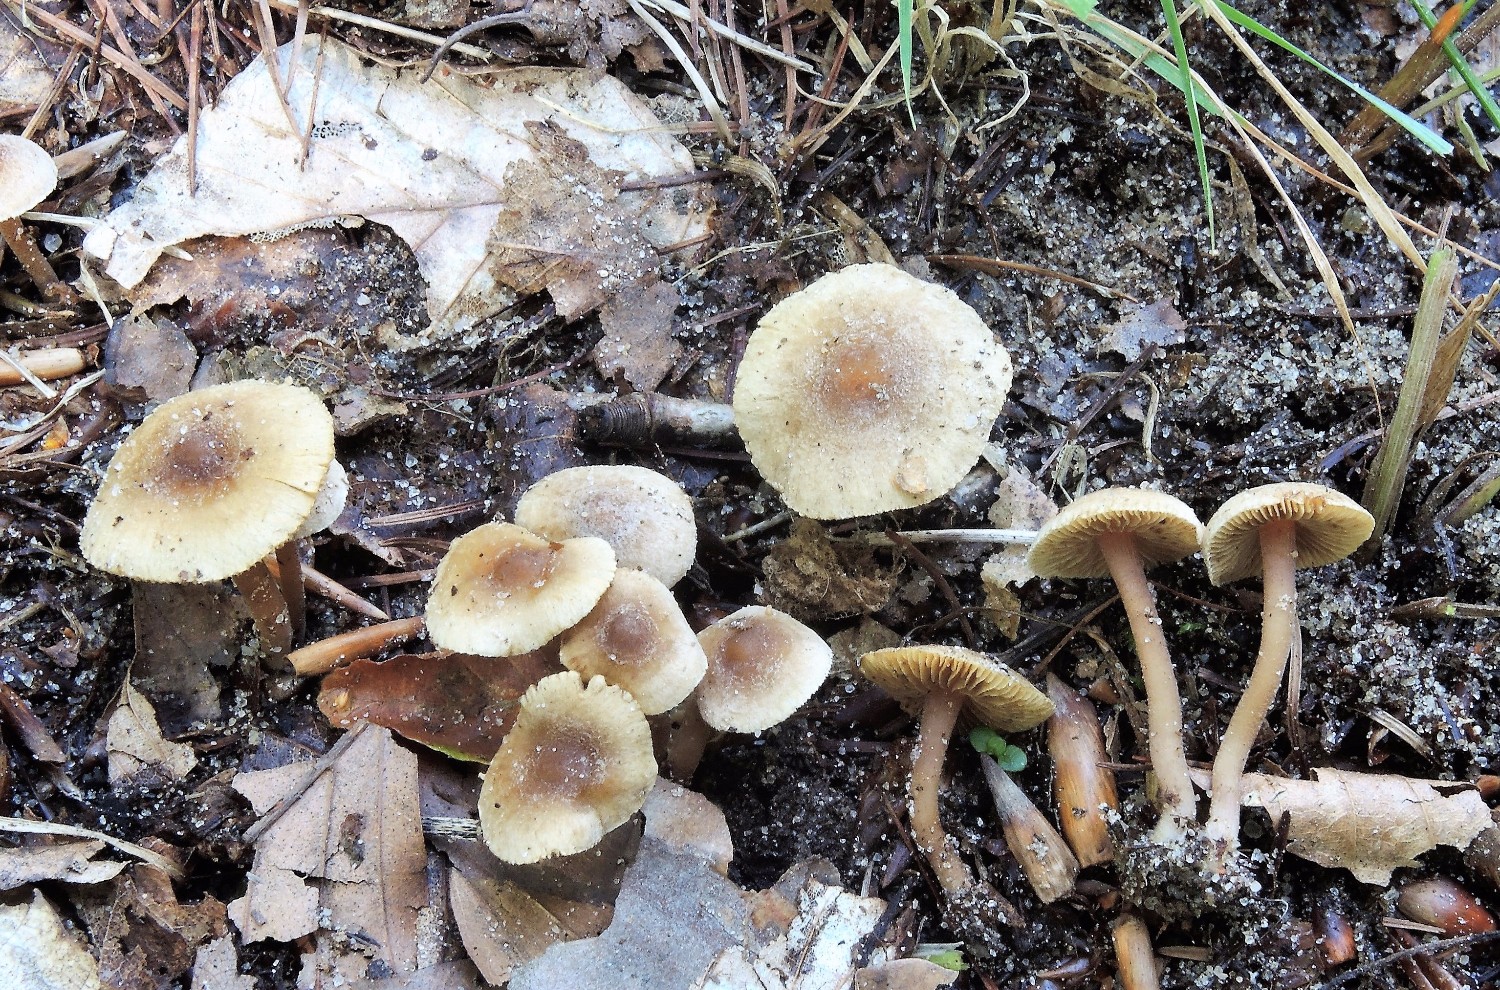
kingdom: Fungi
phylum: Basidiomycota
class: Agaricomycetes
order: Agaricales
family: Inocybaceae
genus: Inocybe
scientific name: Inocybe petiginosa
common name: liden trævlhat
